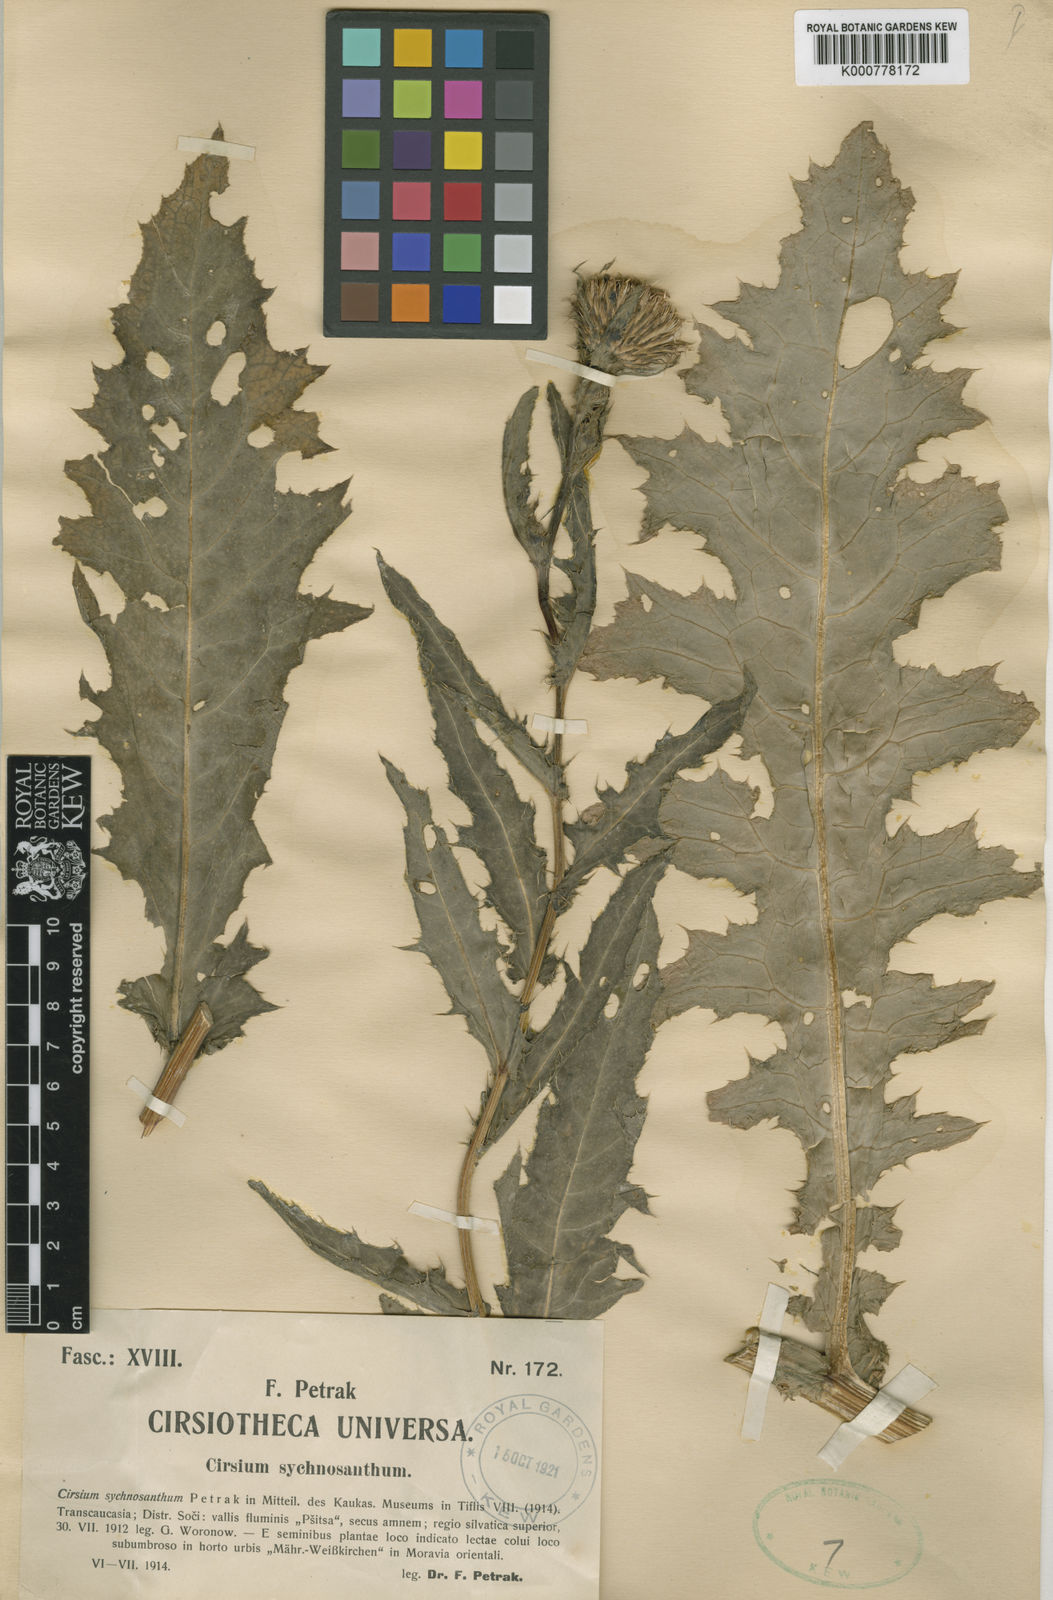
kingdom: Plantae
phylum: Tracheophyta
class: Magnoliopsida
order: Asterales
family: Asteraceae
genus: Cirsium
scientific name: Cirsium sychnosanthum
